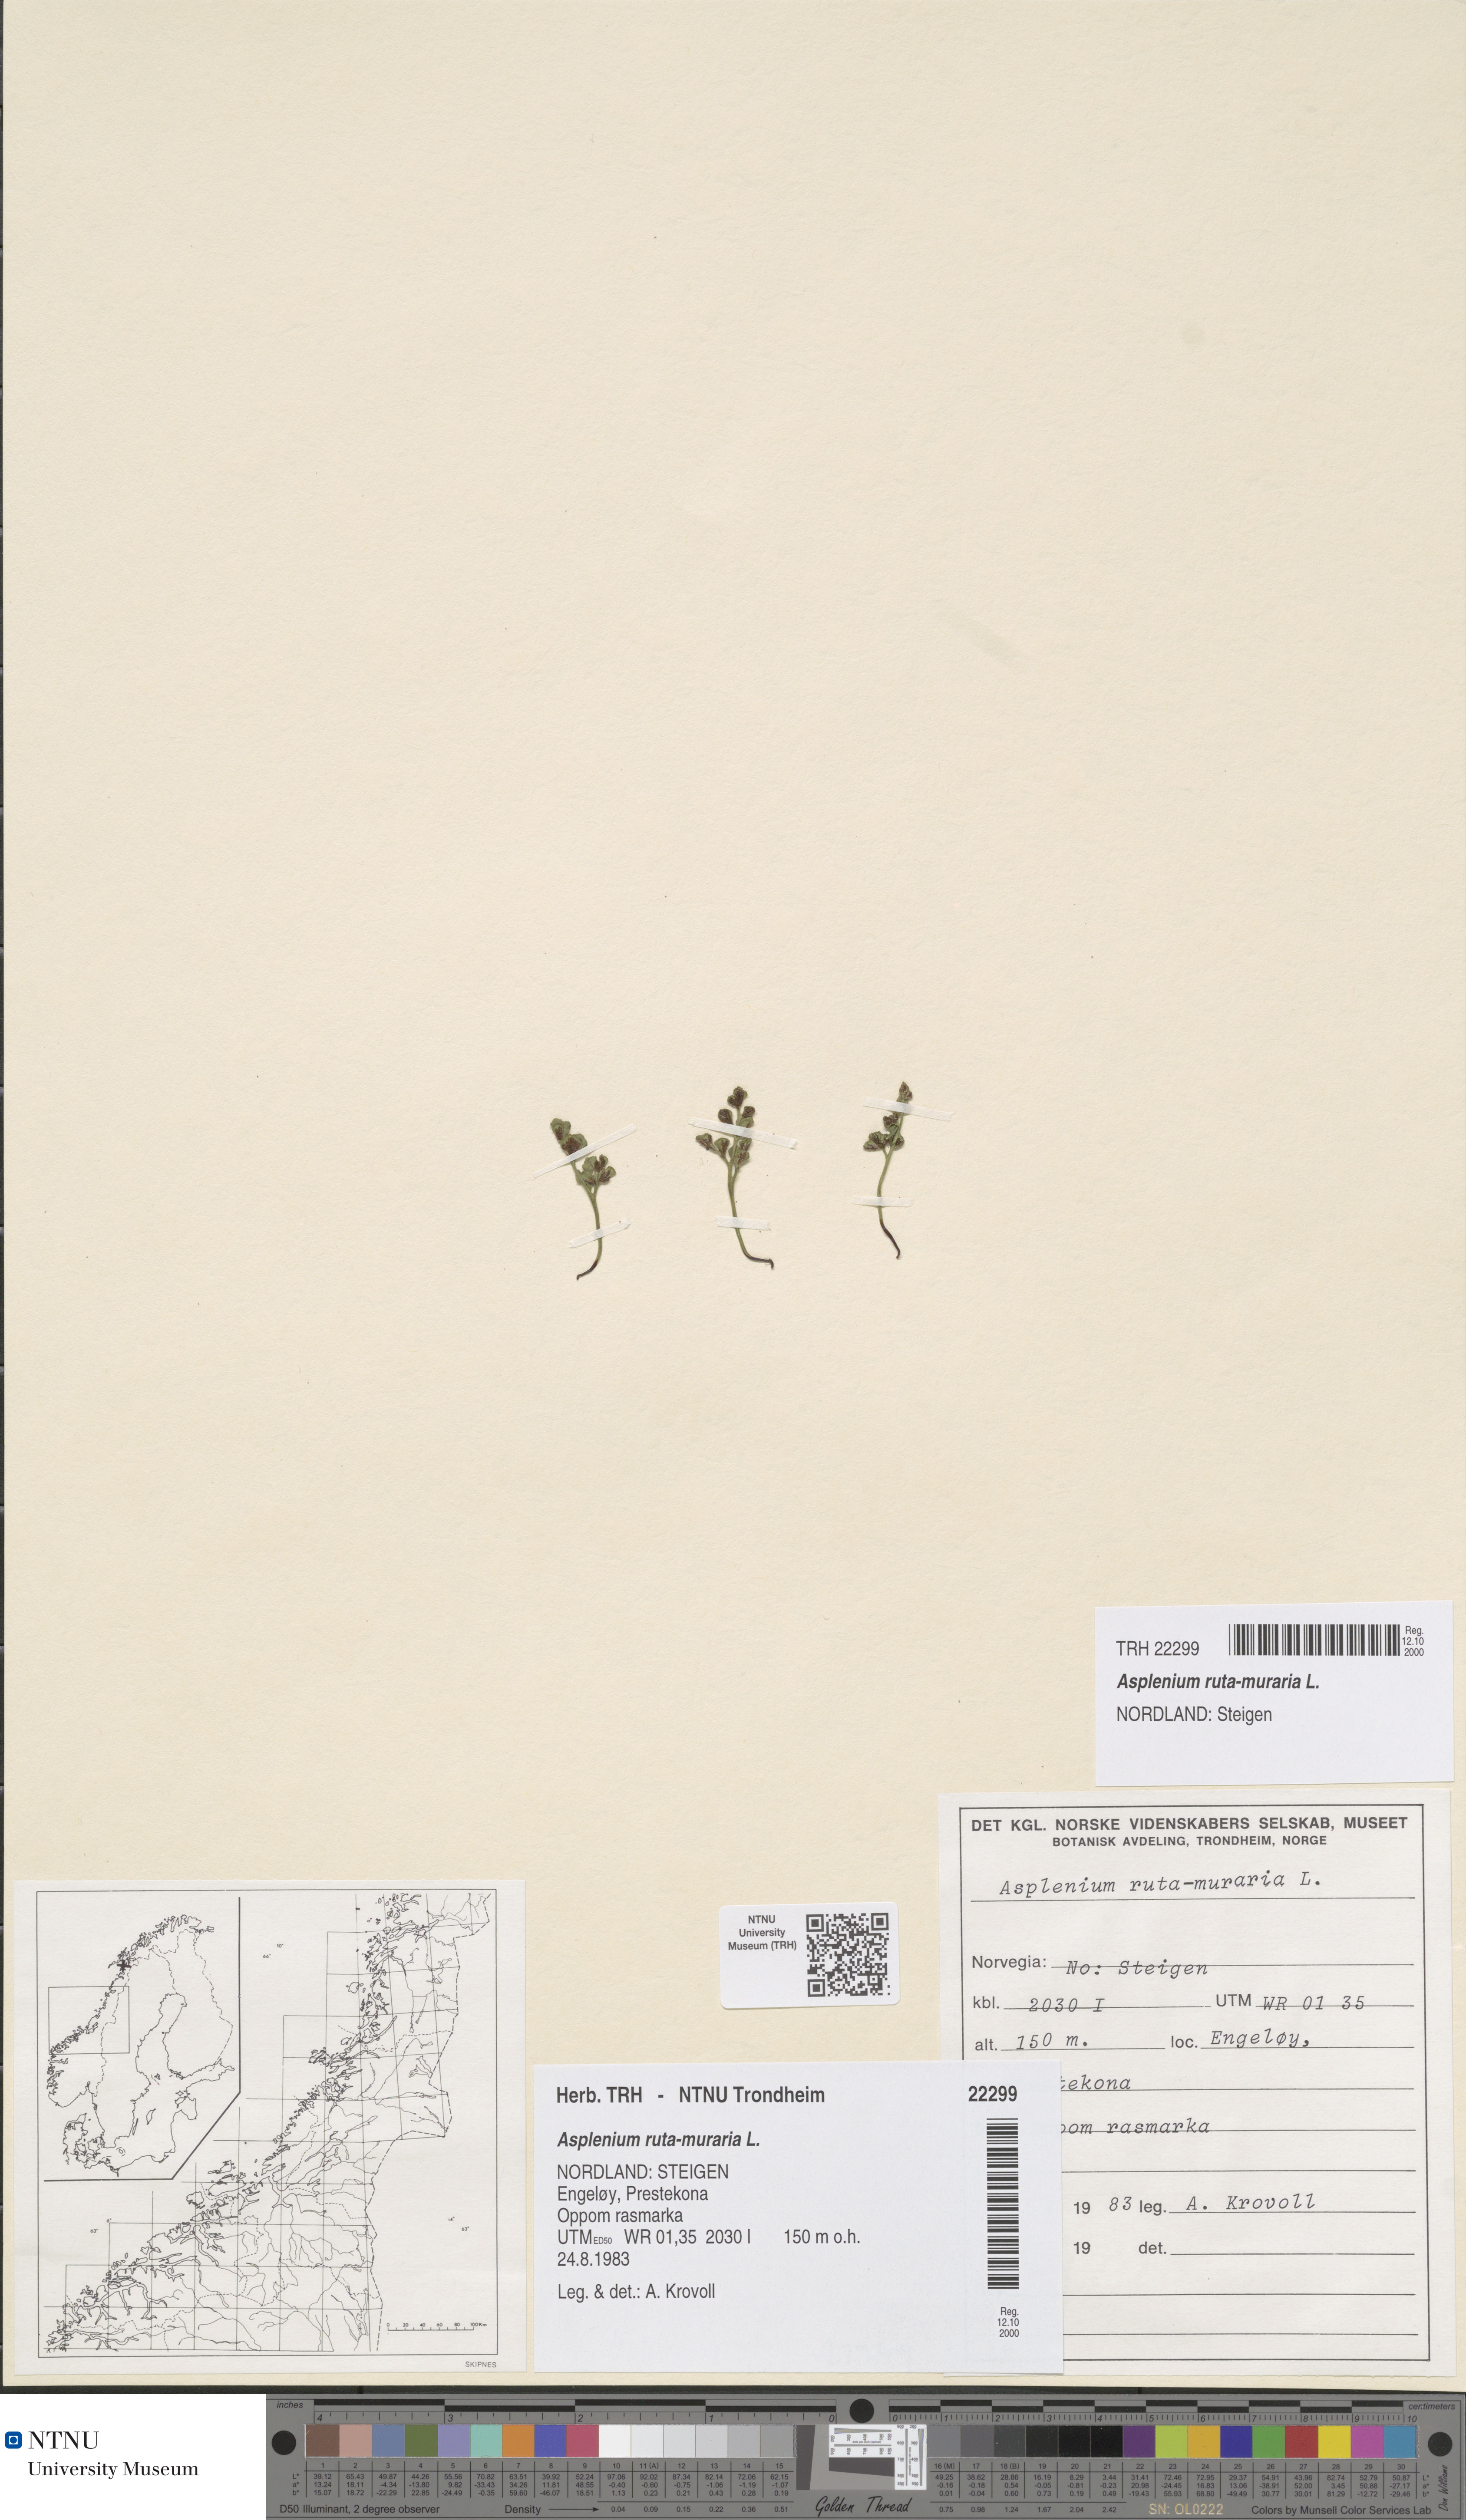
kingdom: Plantae
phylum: Tracheophyta
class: Polypodiopsida
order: Polypodiales
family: Aspleniaceae
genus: Asplenium
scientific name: Asplenium ruta-muraria
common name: Wall-rue
